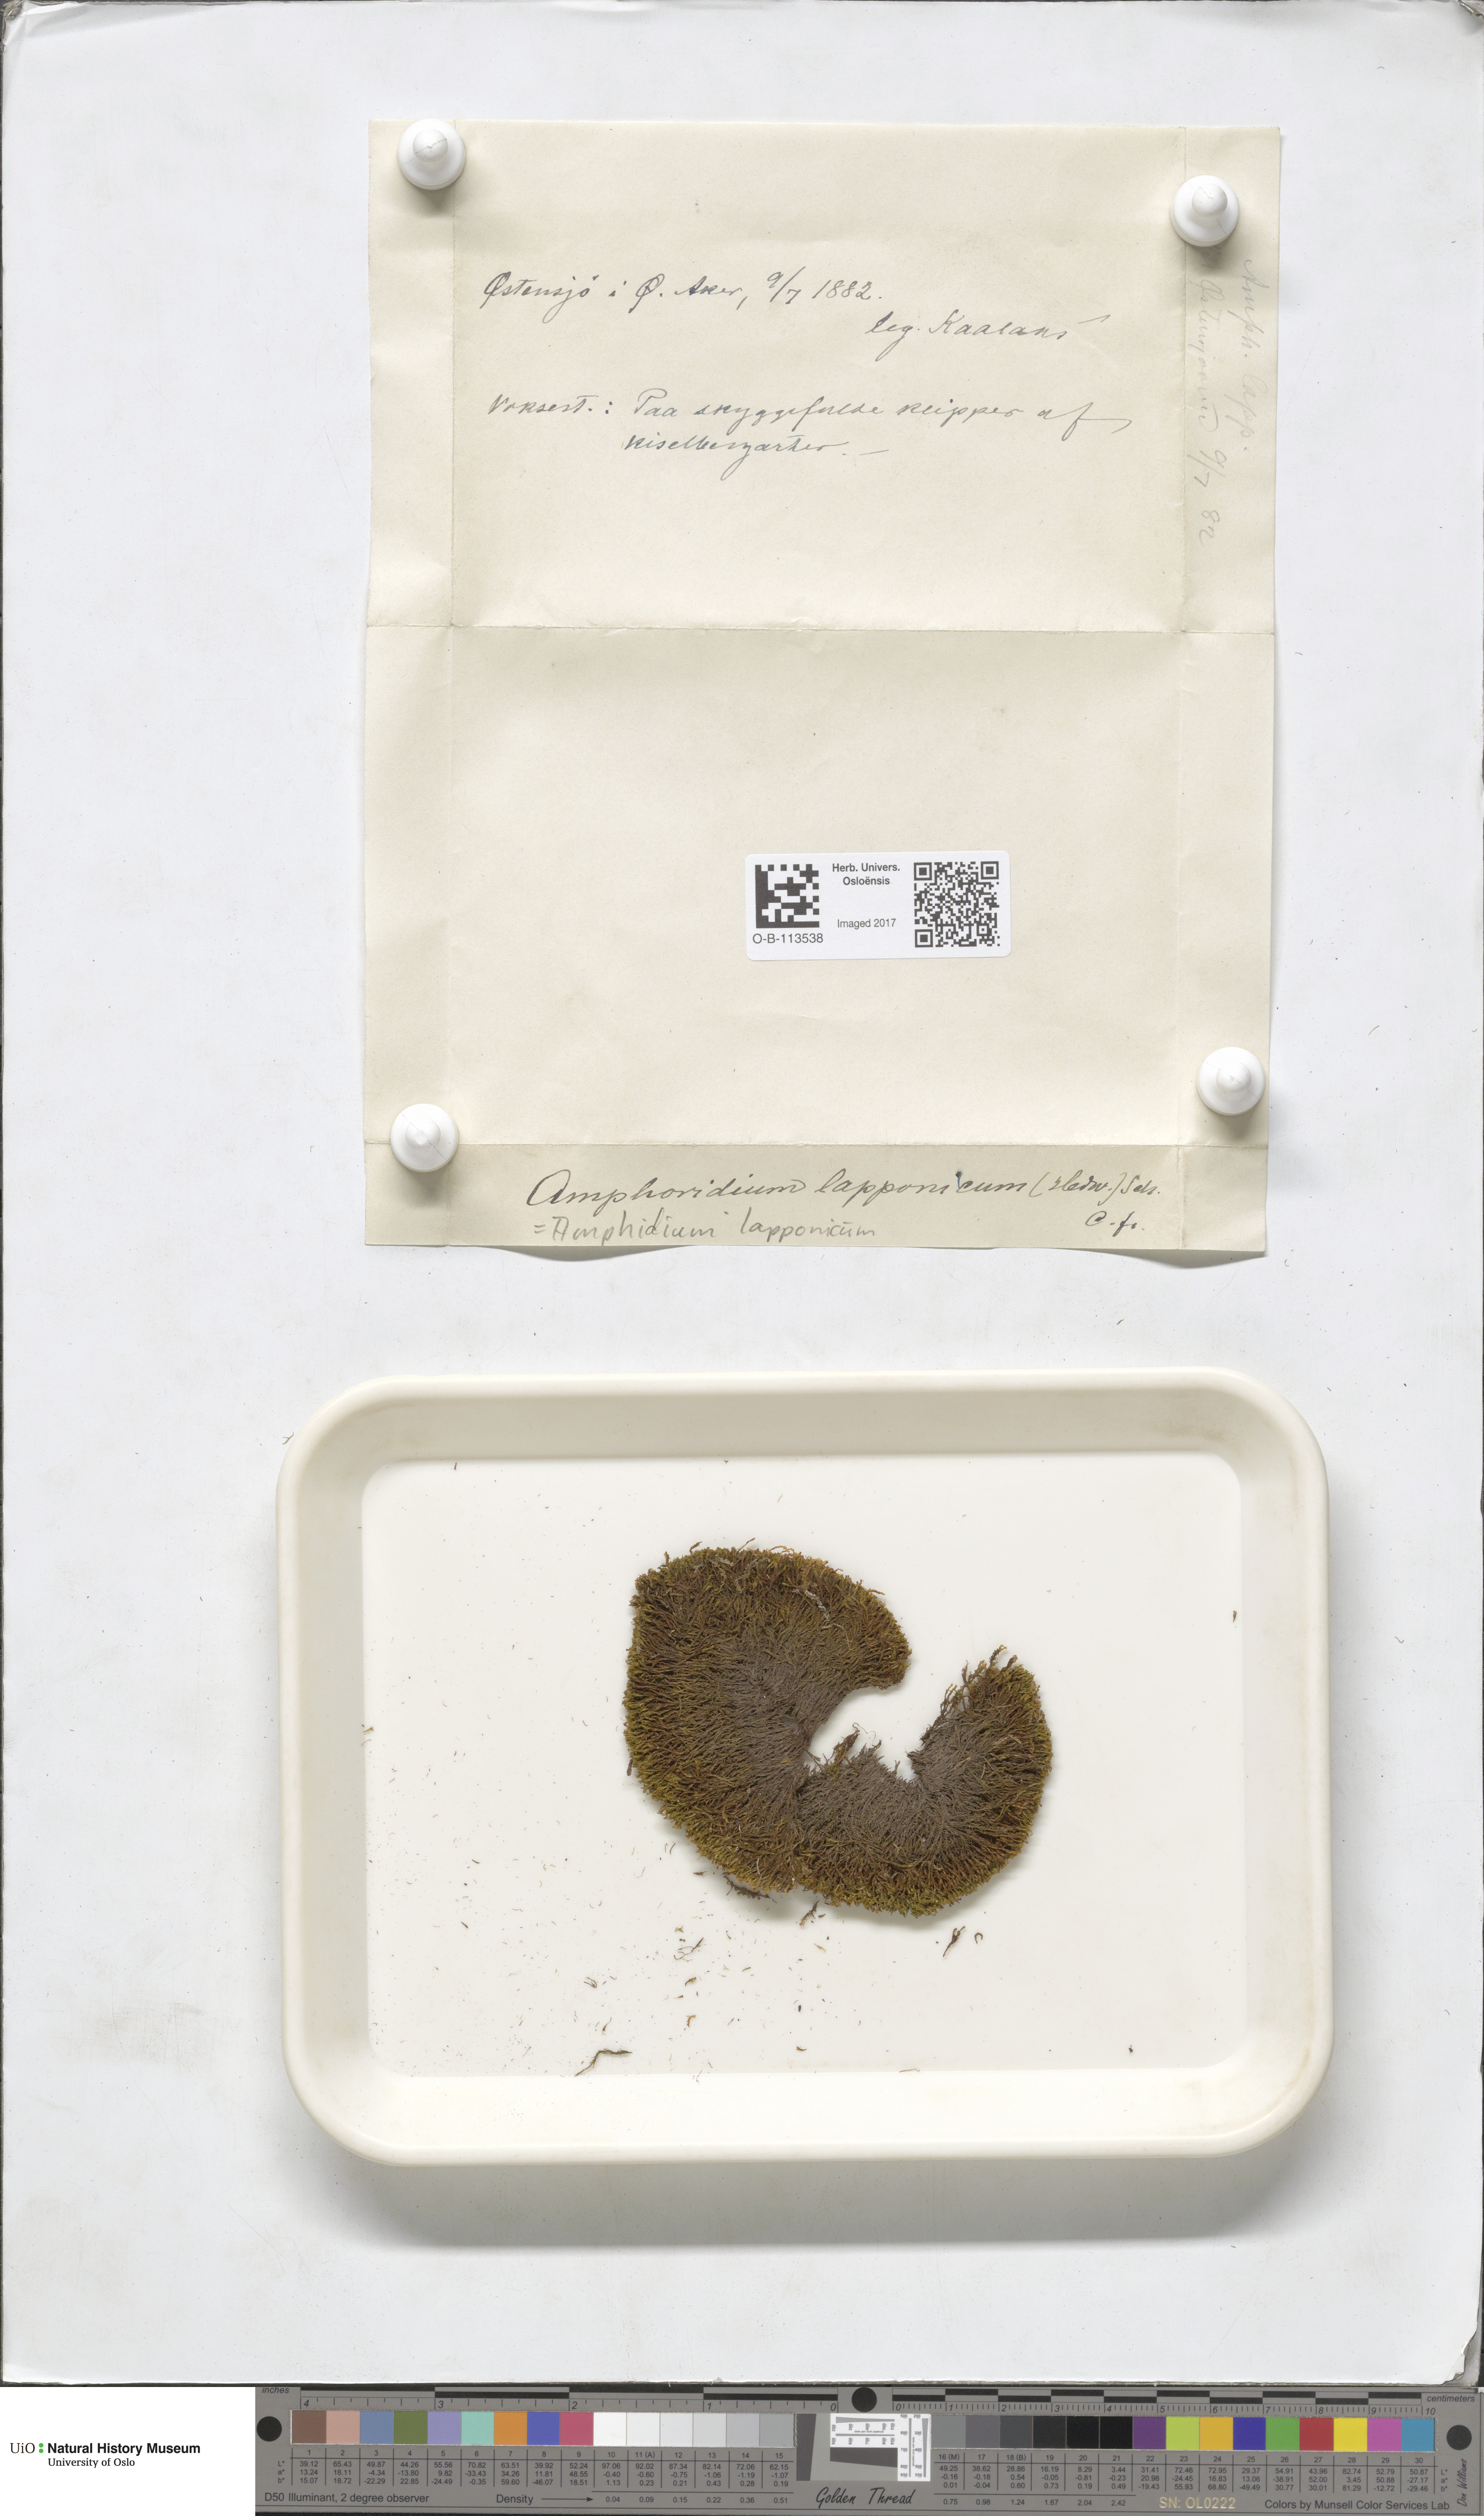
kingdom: Plantae
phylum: Bryophyta
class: Bryopsida
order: Dicranales
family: Amphidiaceae
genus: Amphidium
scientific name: Amphidium lapponicum
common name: Lapland yoke moss
